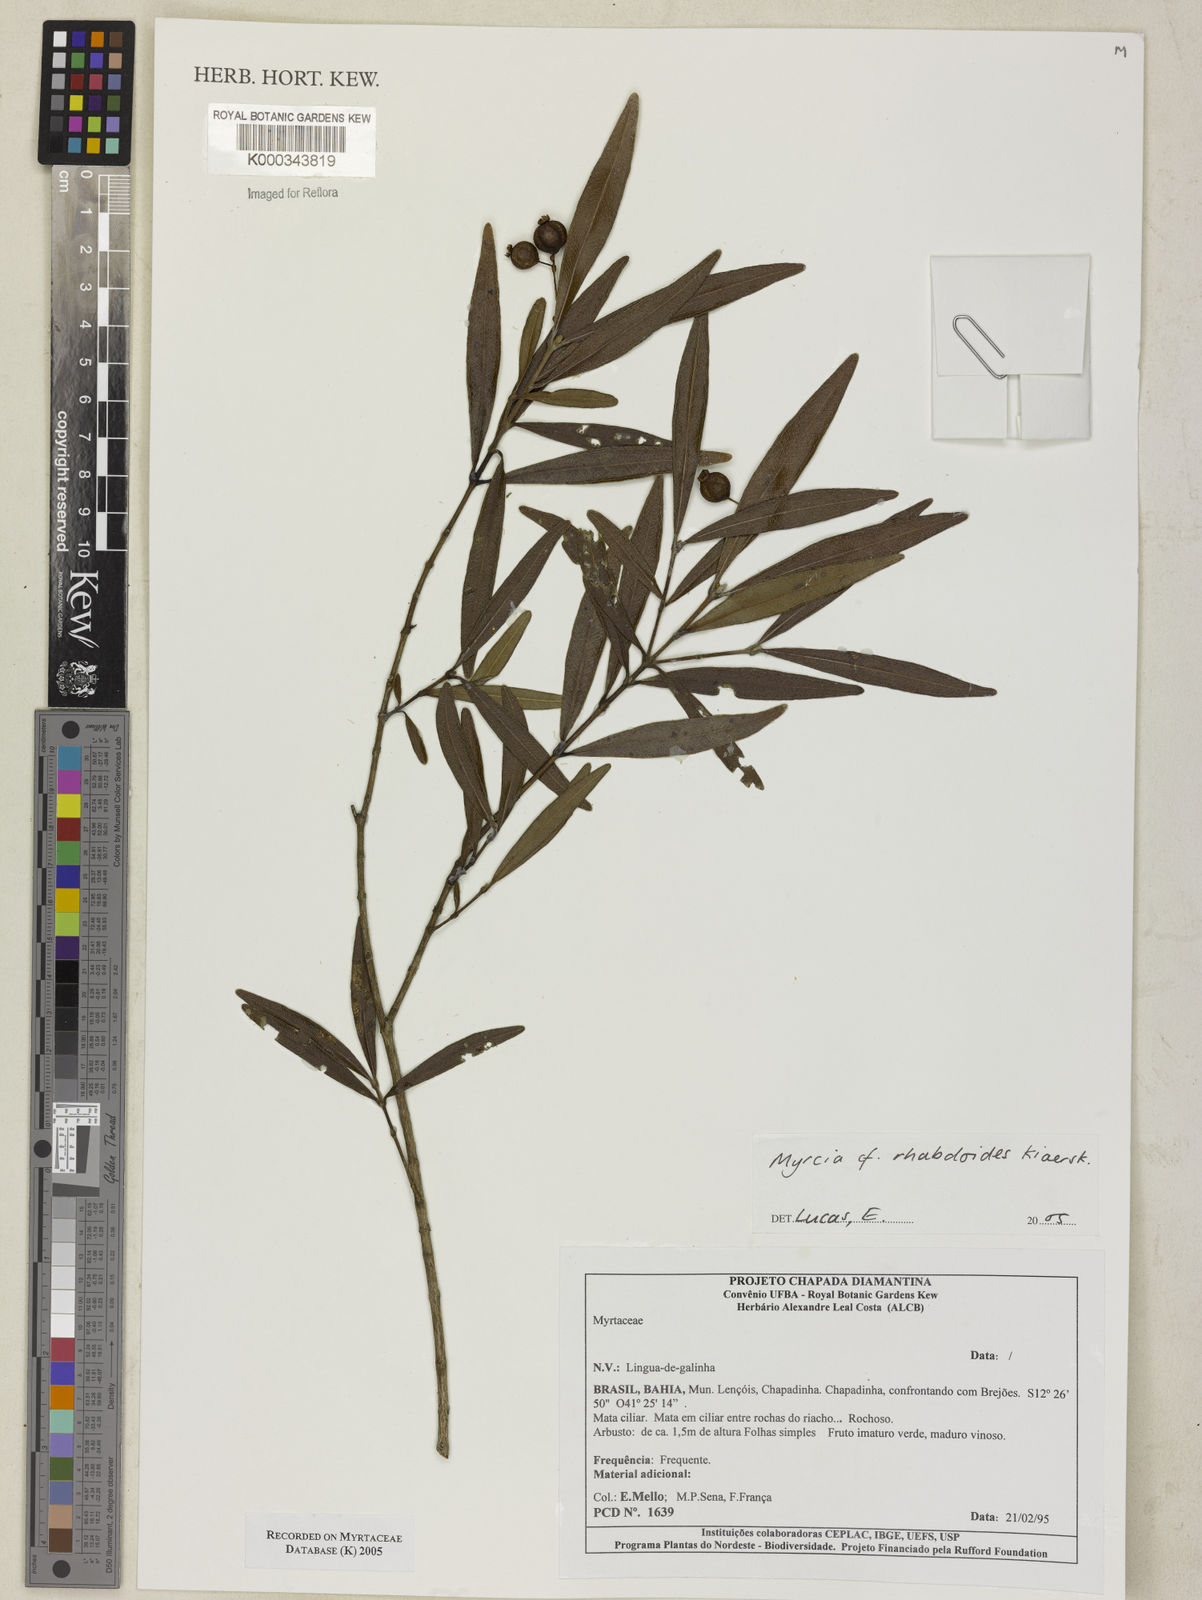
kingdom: Plantae
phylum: Tracheophyta
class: Magnoliopsida
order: Myrtales
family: Myrtaceae
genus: Myrcia
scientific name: Myrcia guianensis
